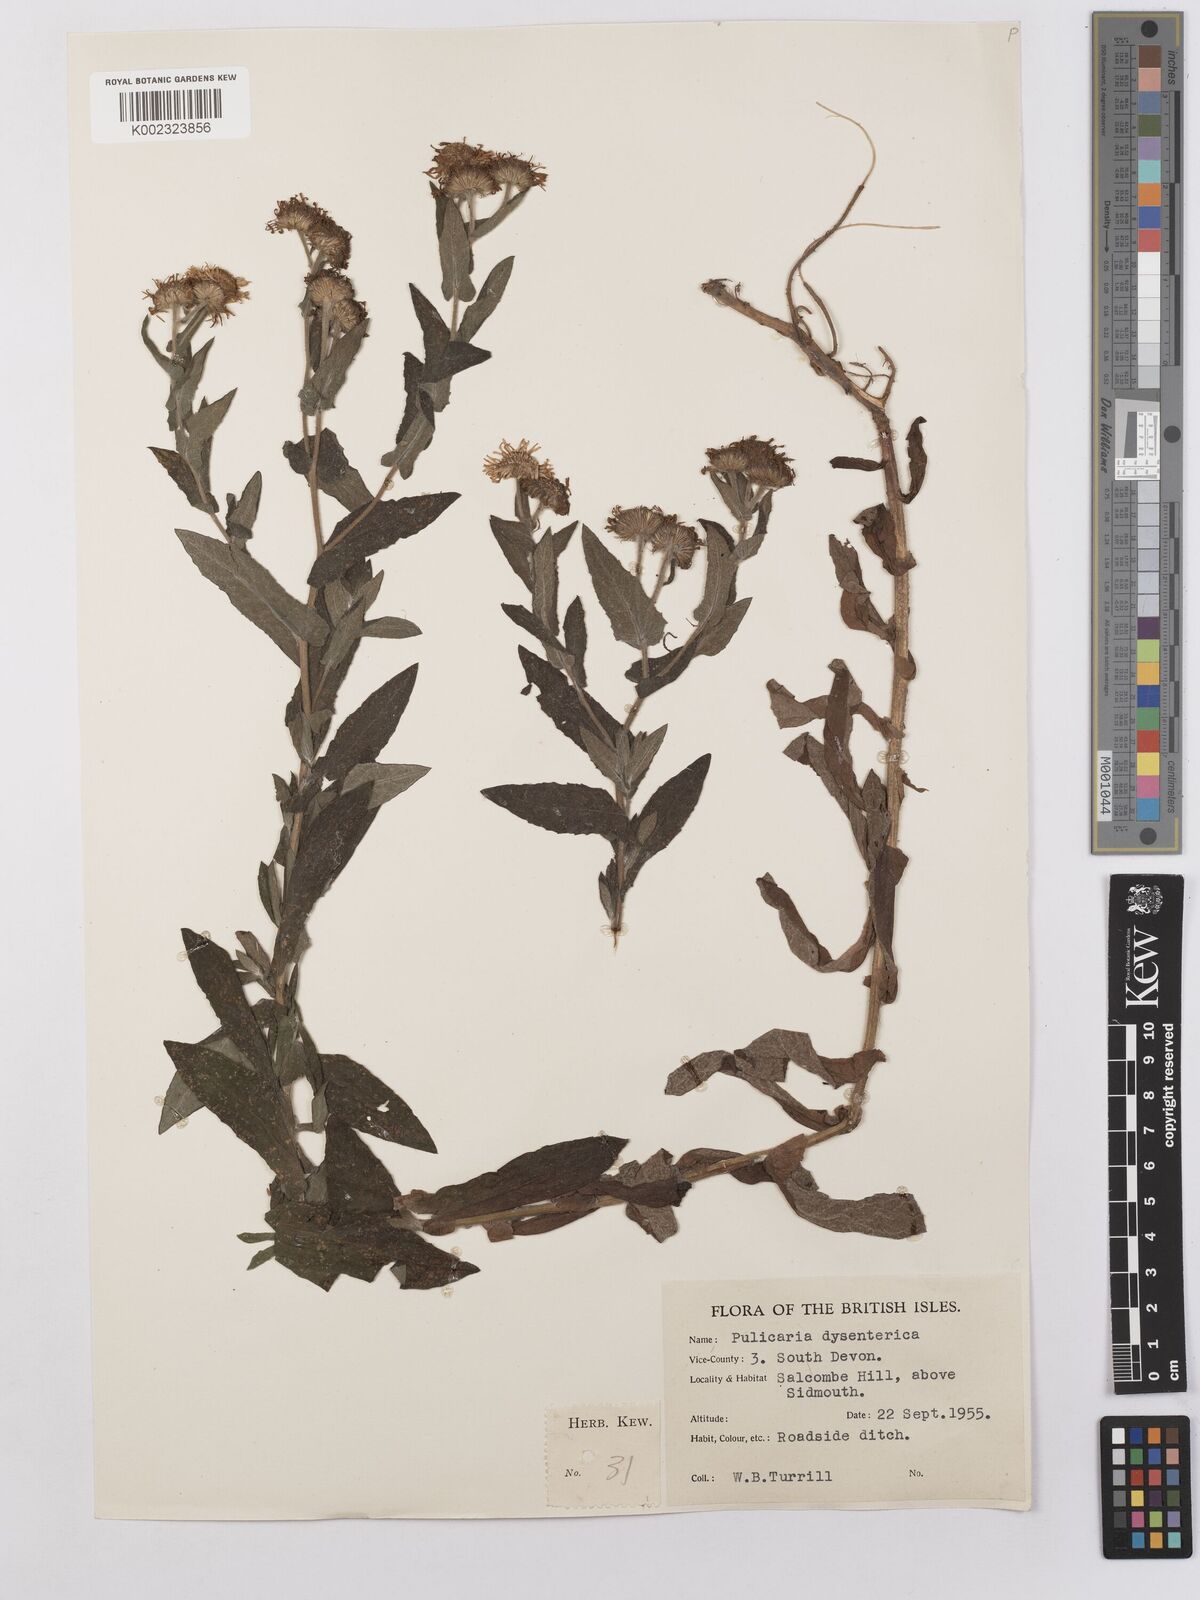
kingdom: Plantae
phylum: Tracheophyta
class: Magnoliopsida
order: Asterales
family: Asteraceae
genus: Pulicaria
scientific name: Pulicaria dysenterica
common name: Common fleabane
